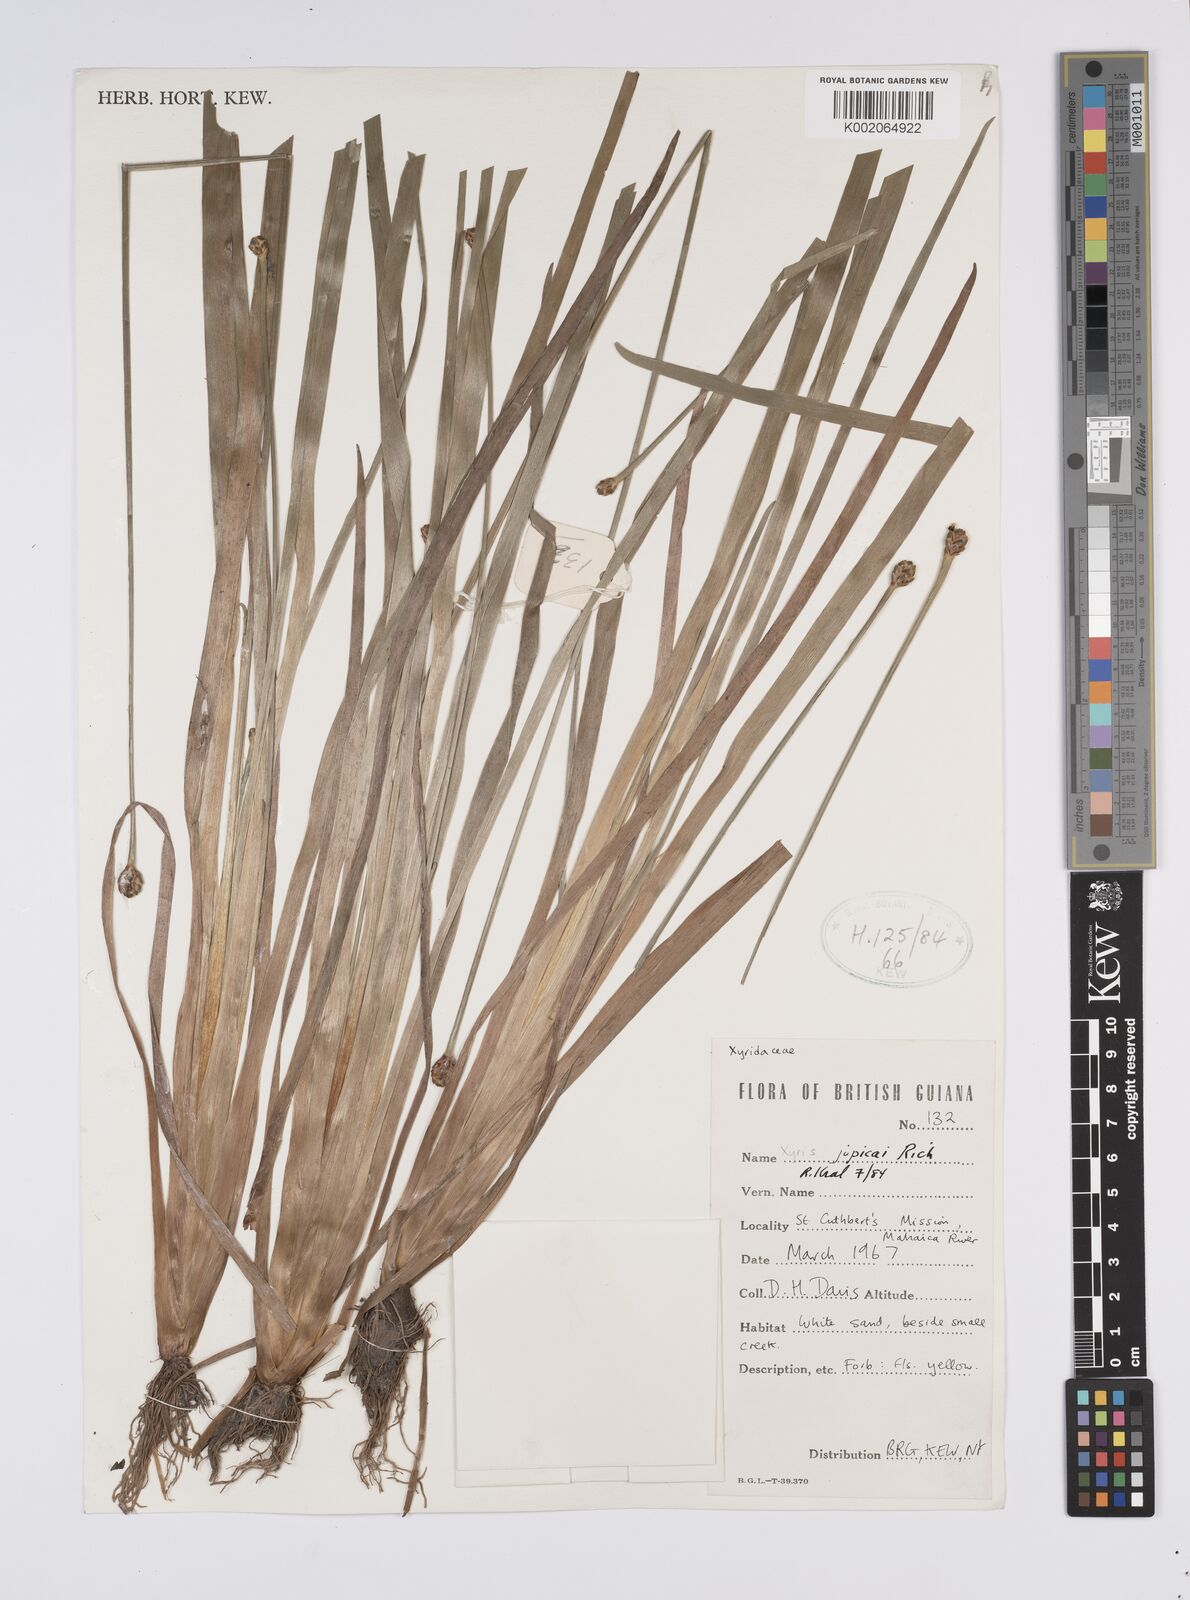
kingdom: Plantae
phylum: Tracheophyta
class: Liliopsida
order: Poales
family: Xyridaceae
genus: Xyris
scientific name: Xyris jupicai
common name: Richard's yelloweyed grass
